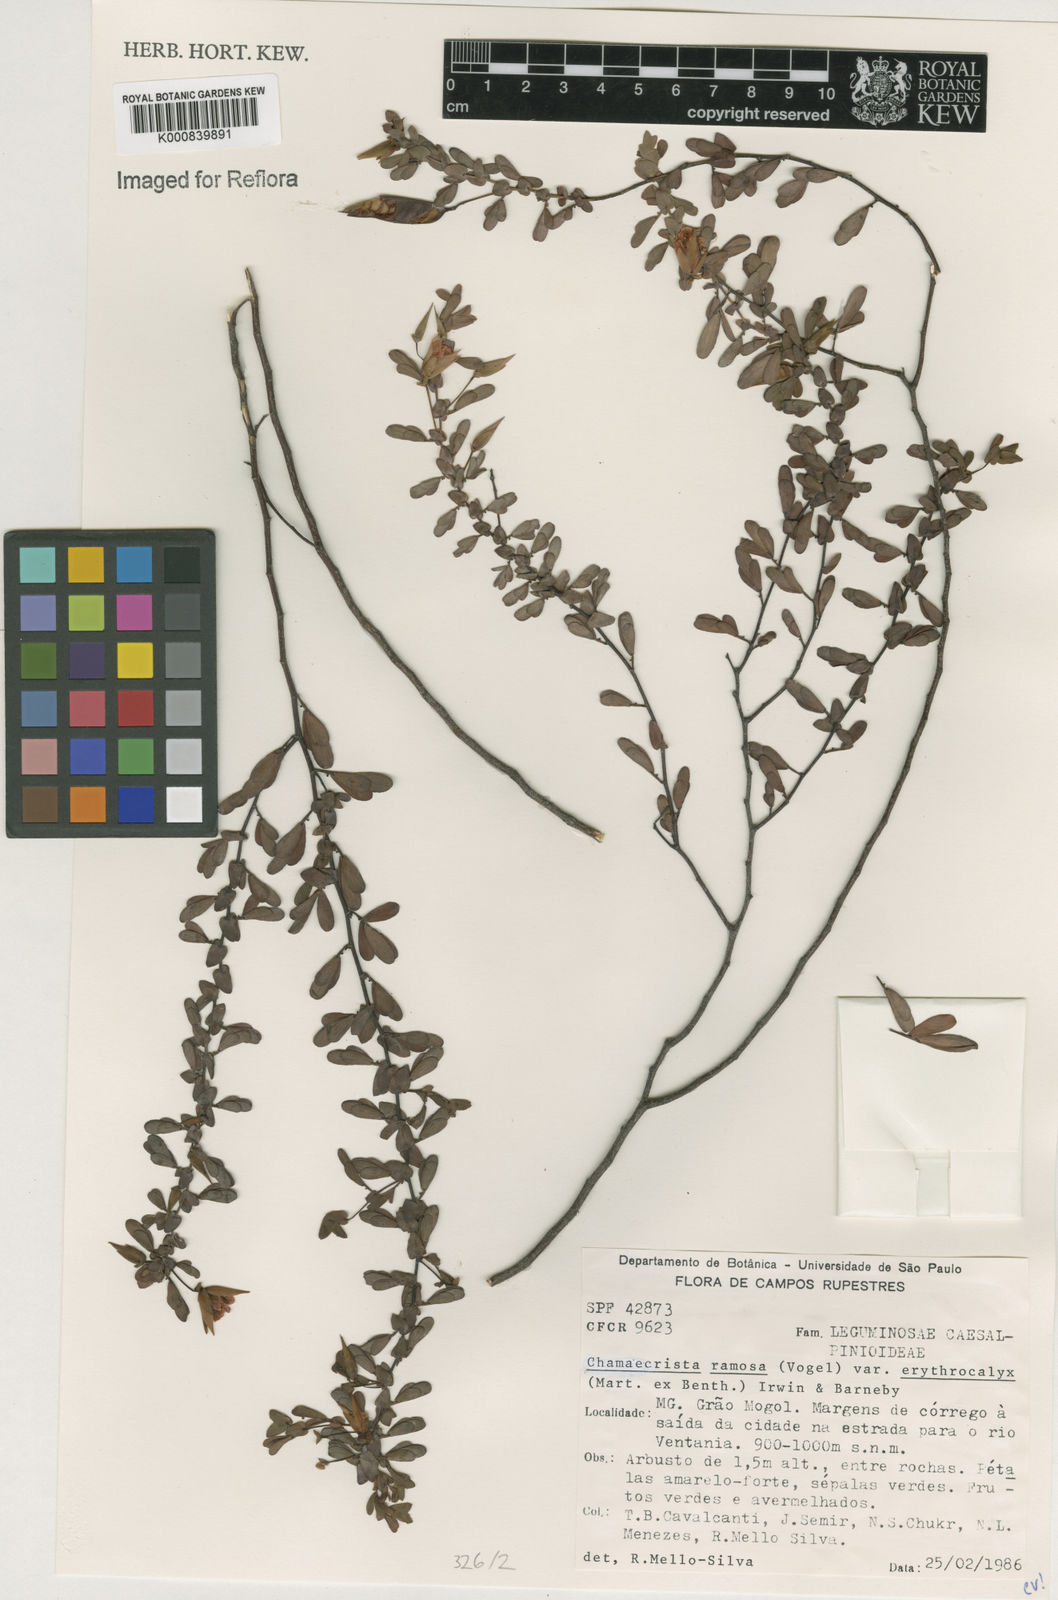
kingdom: Plantae
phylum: Tracheophyta
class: Magnoliopsida
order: Fabales
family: Fabaceae
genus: Chamaecrista
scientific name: Chamaecrista ramosa
